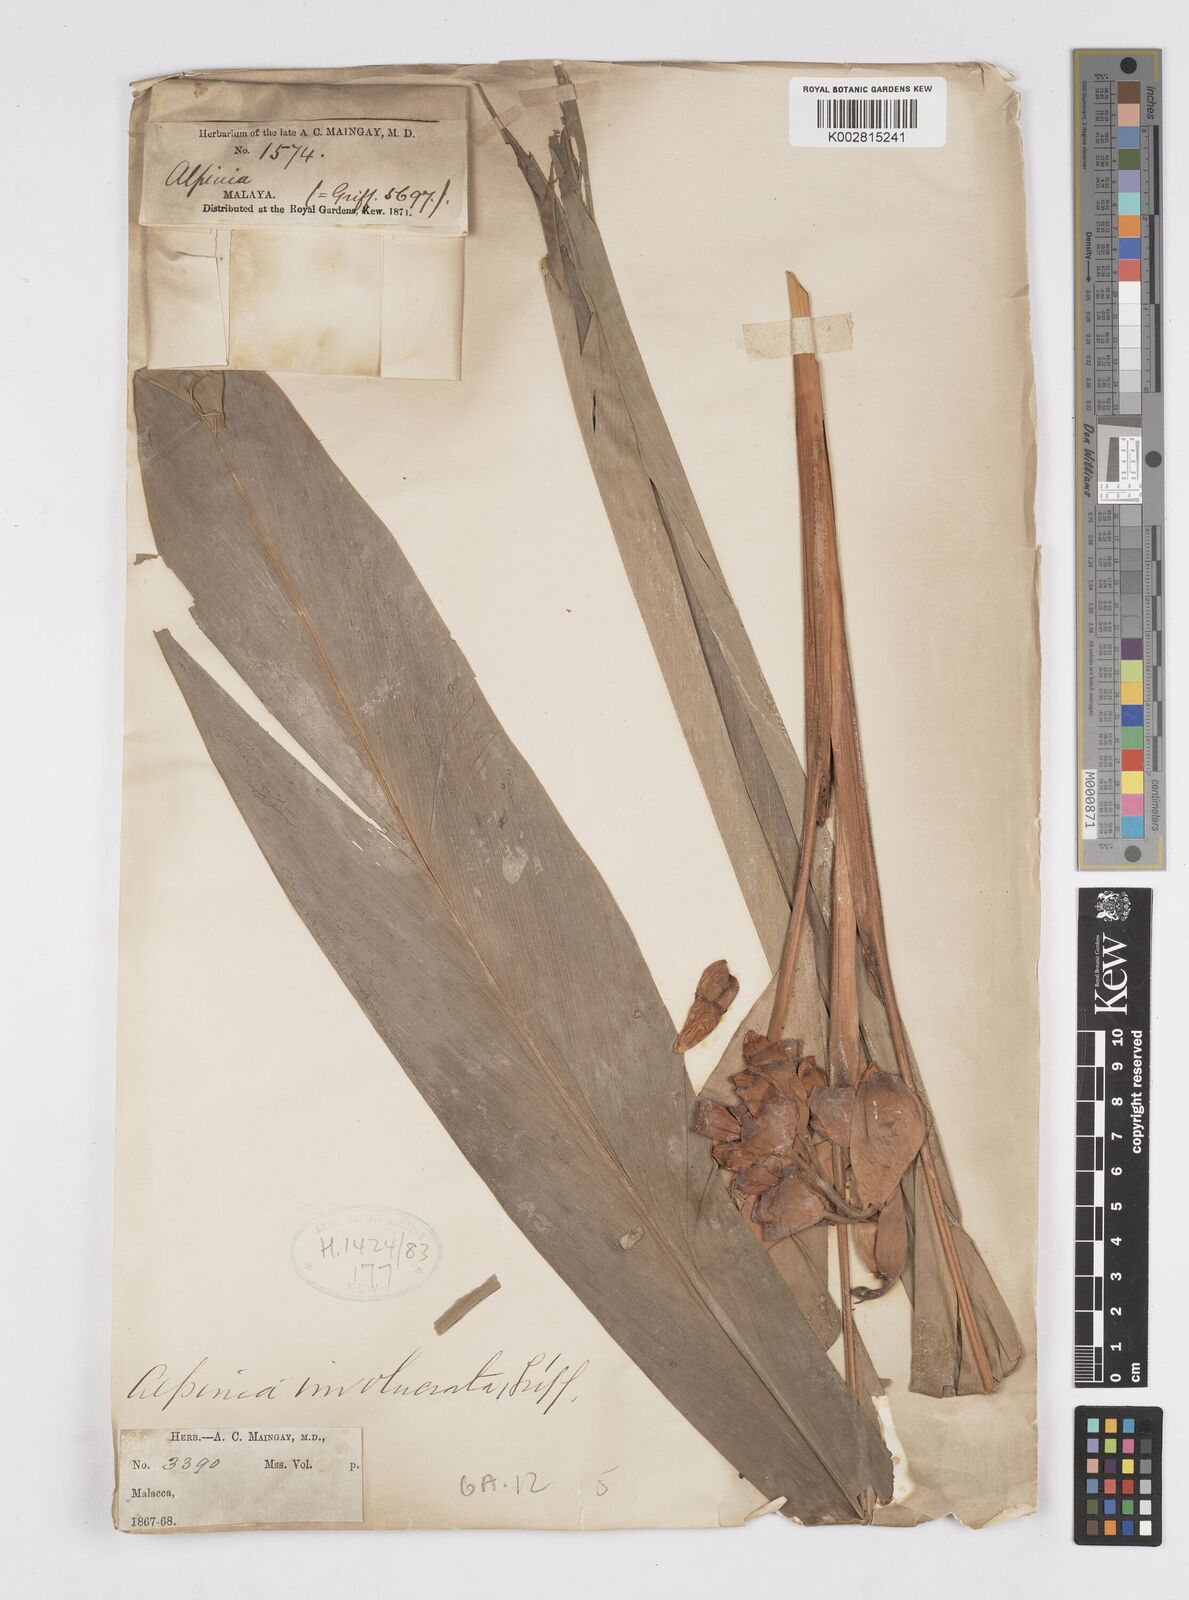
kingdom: Plantae
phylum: Tracheophyta
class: Liliopsida
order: Zingiberales
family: Zingiberaceae
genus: Alpinia
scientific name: Alpinia javanica
